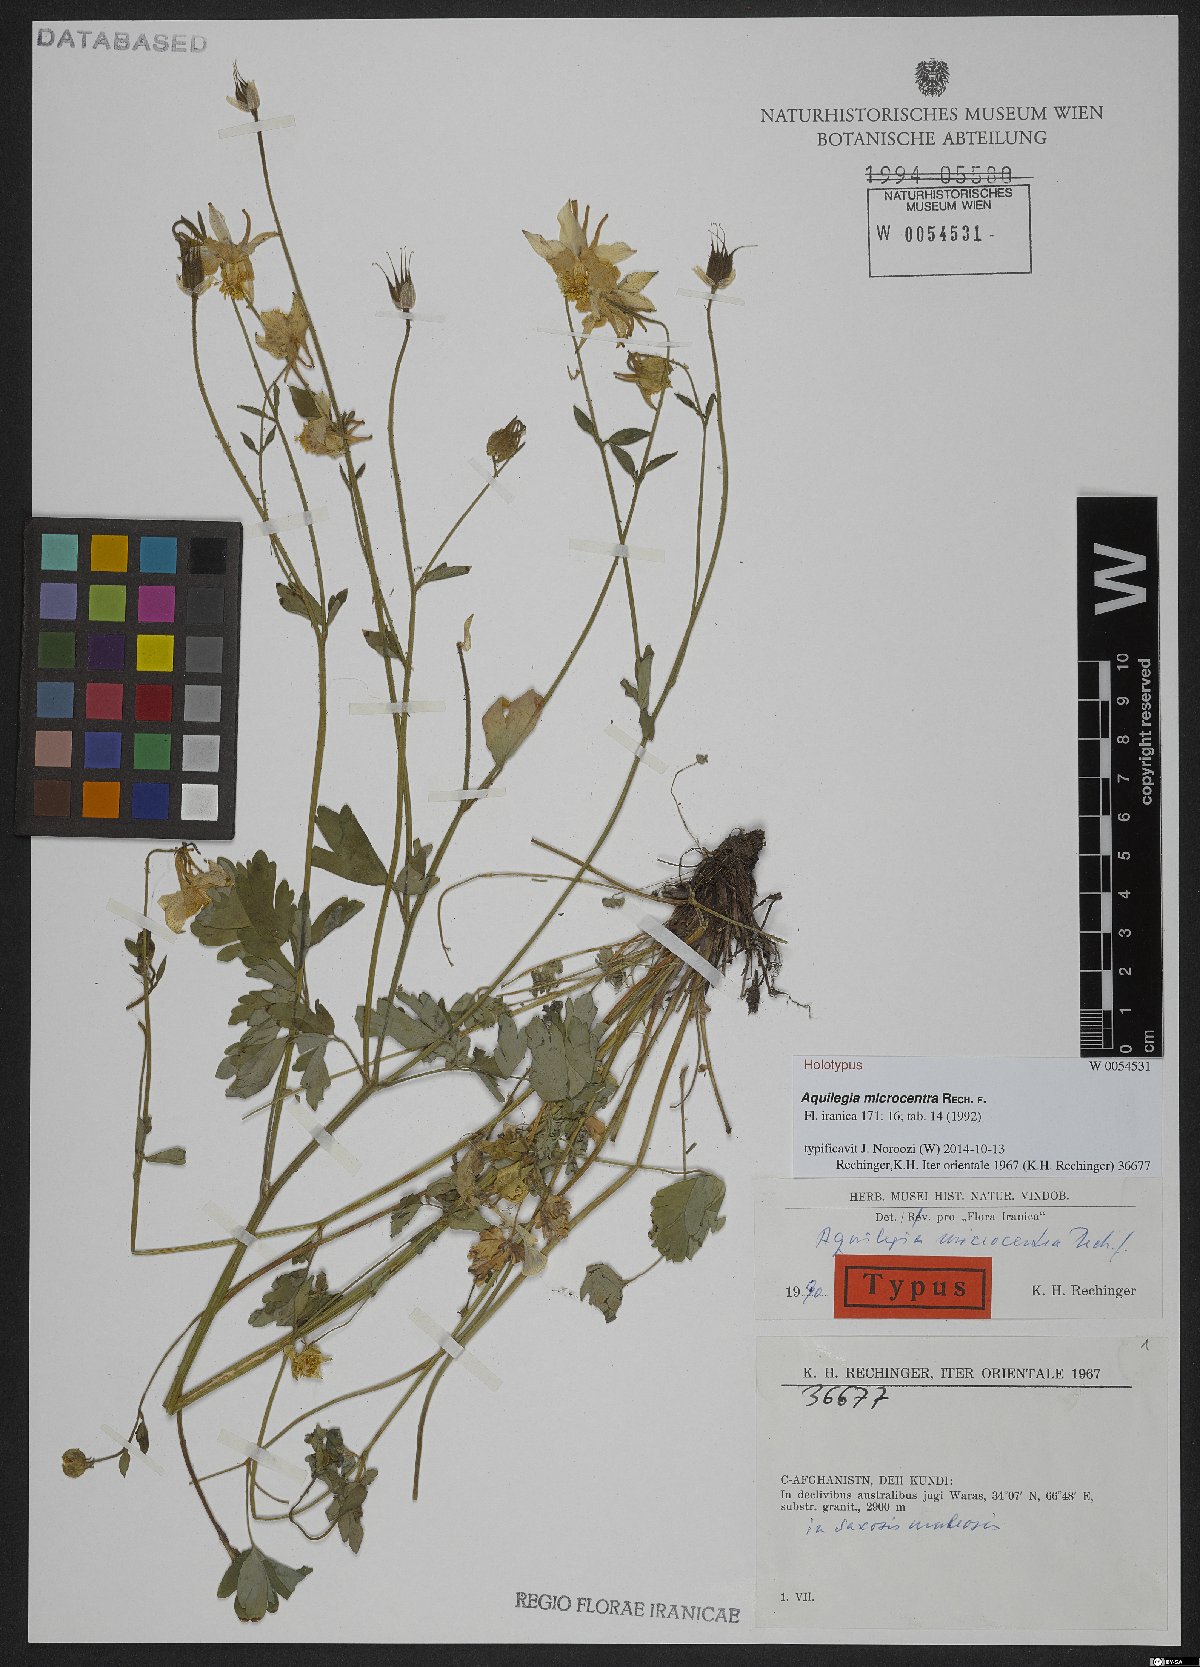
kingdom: Plantae
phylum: Tracheophyta
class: Magnoliopsida
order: Ranunculales
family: Ranunculaceae
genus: Aquilegia
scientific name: Aquilegia microcentra
